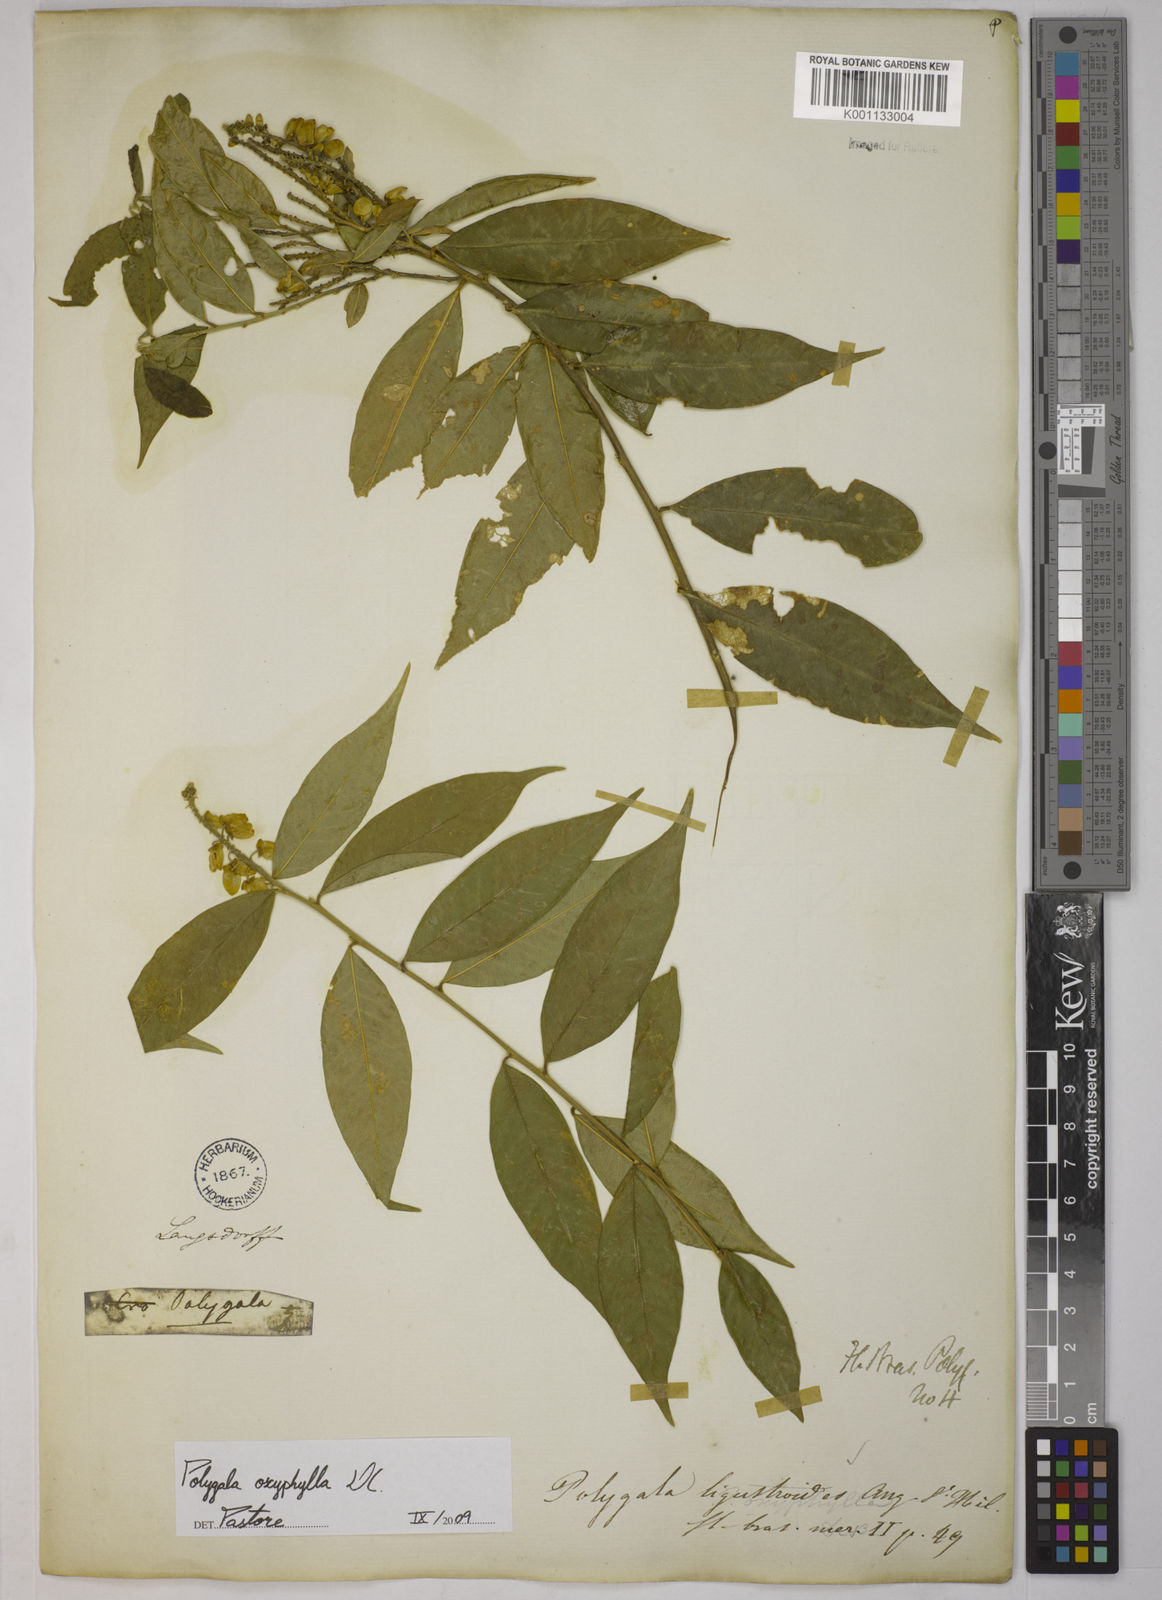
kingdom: Plantae
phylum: Tracheophyta
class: Magnoliopsida
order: Fabales
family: Polygalaceae
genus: Caamembeca
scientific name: Caamembeca oxyphylla
